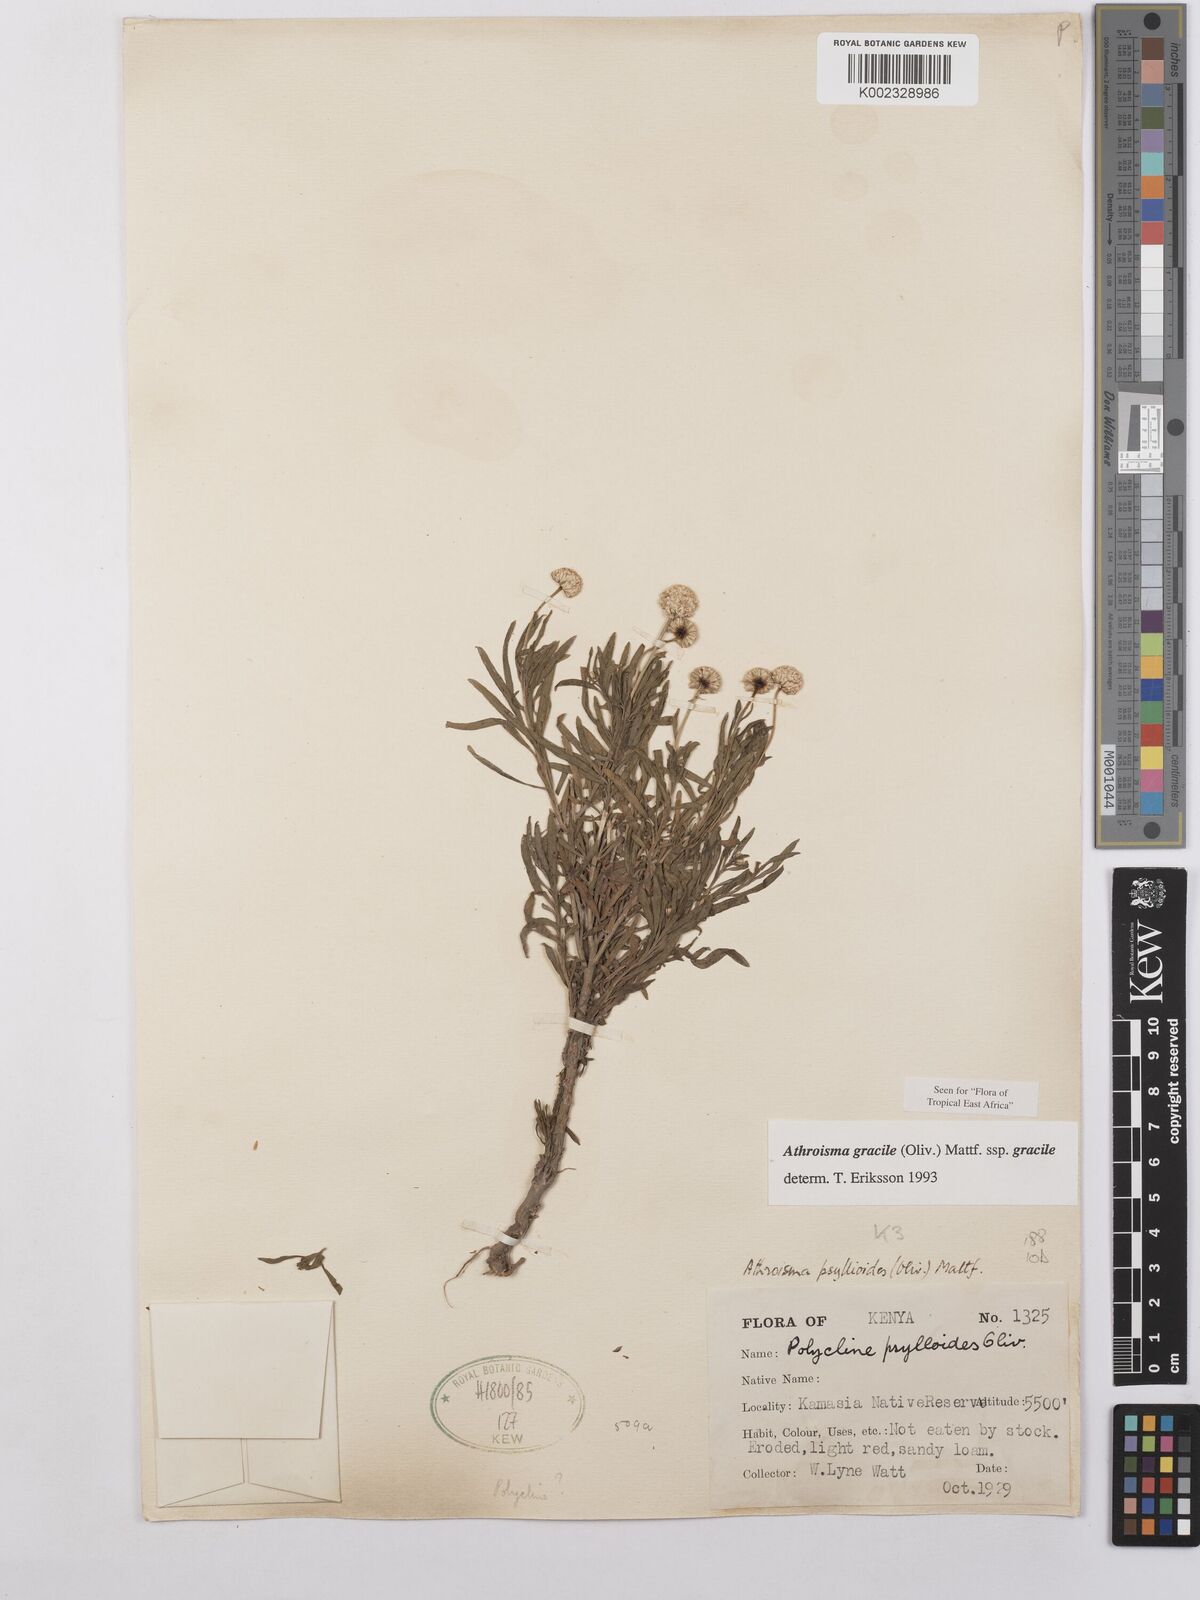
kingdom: Plantae
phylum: Tracheophyta
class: Magnoliopsida
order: Asterales
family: Asteraceae
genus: Athroisma
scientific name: Athroisma gracile
